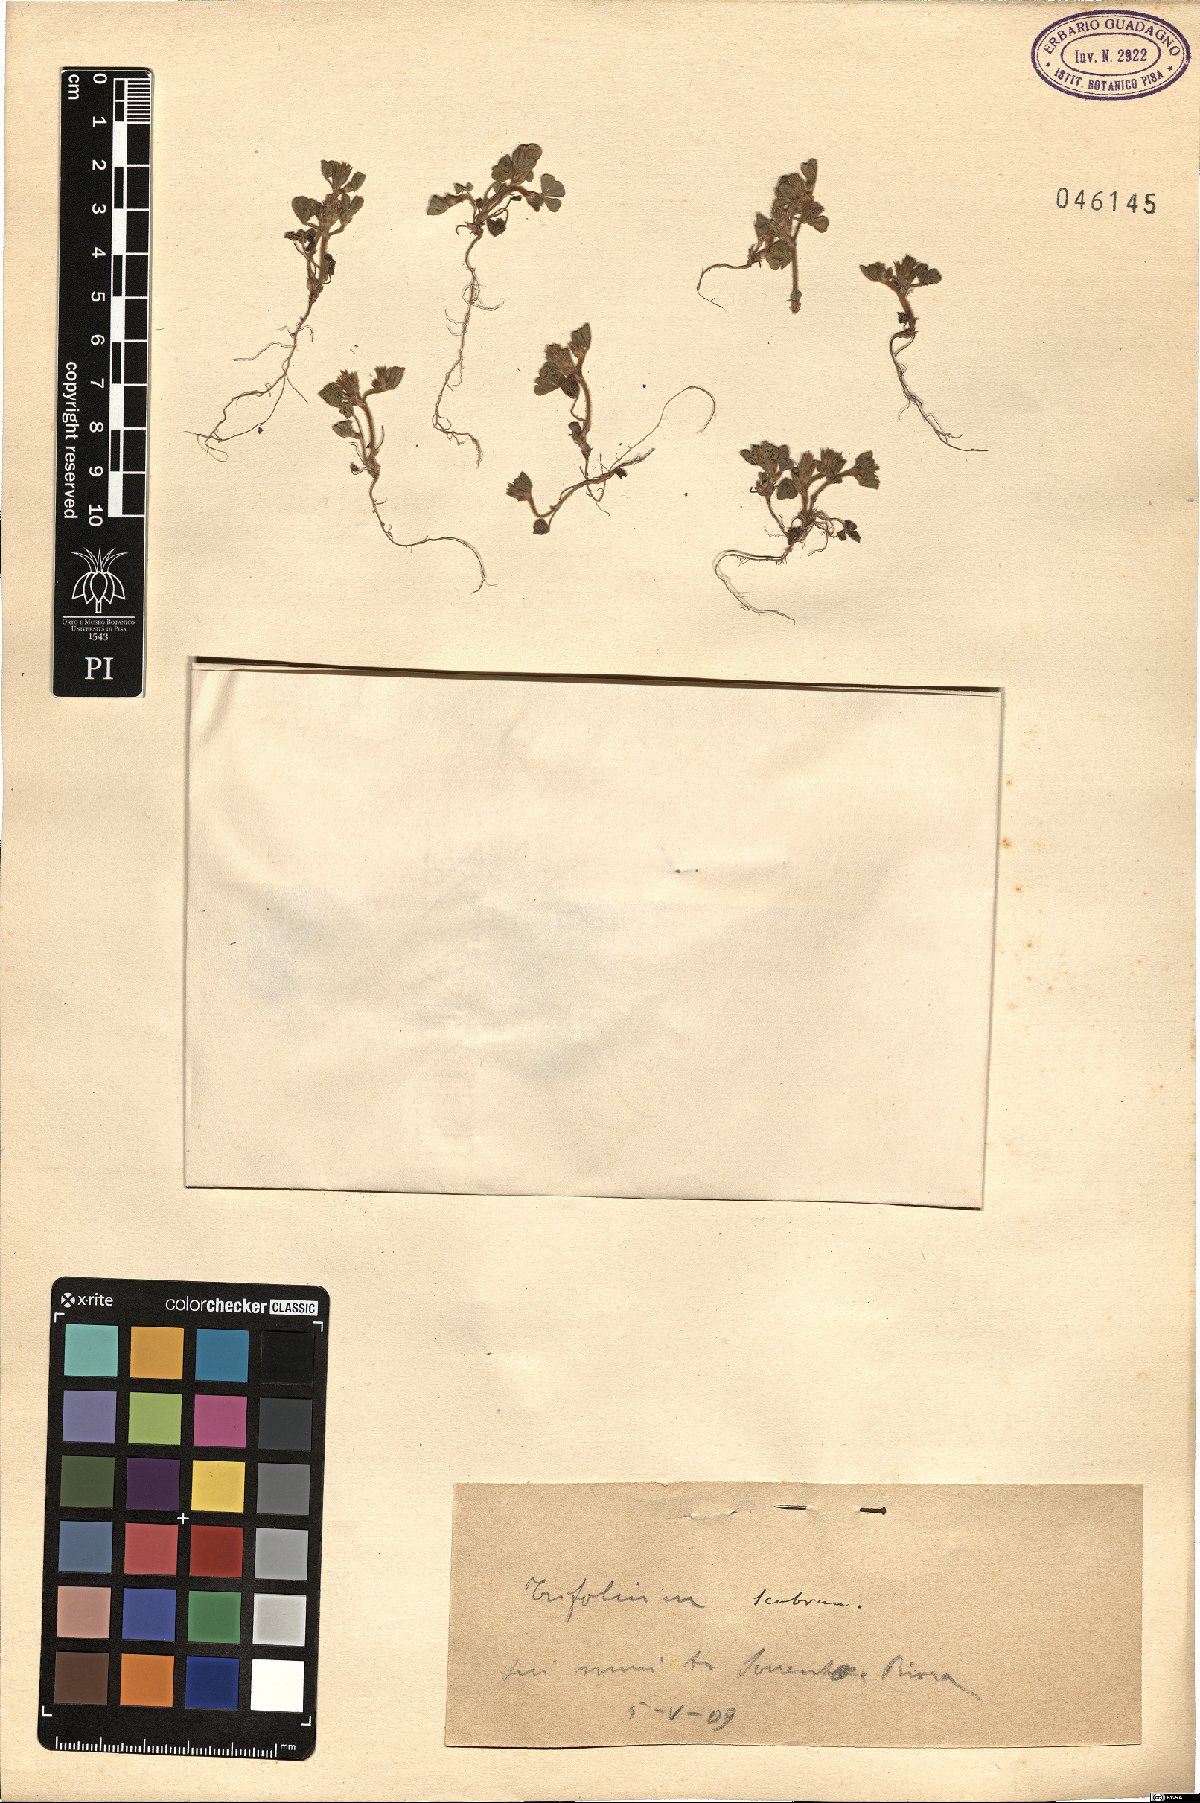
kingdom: Plantae
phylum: Tracheophyta
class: Magnoliopsida
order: Fabales
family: Fabaceae
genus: Trifolium
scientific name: Trifolium scabrum
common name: Rough clover
